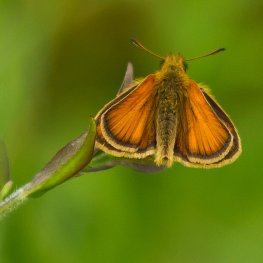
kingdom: Animalia
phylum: Arthropoda
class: Insecta
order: Lepidoptera
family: Hesperiidae
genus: Thymelicus
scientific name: Thymelicus lineola
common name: European Skipper
